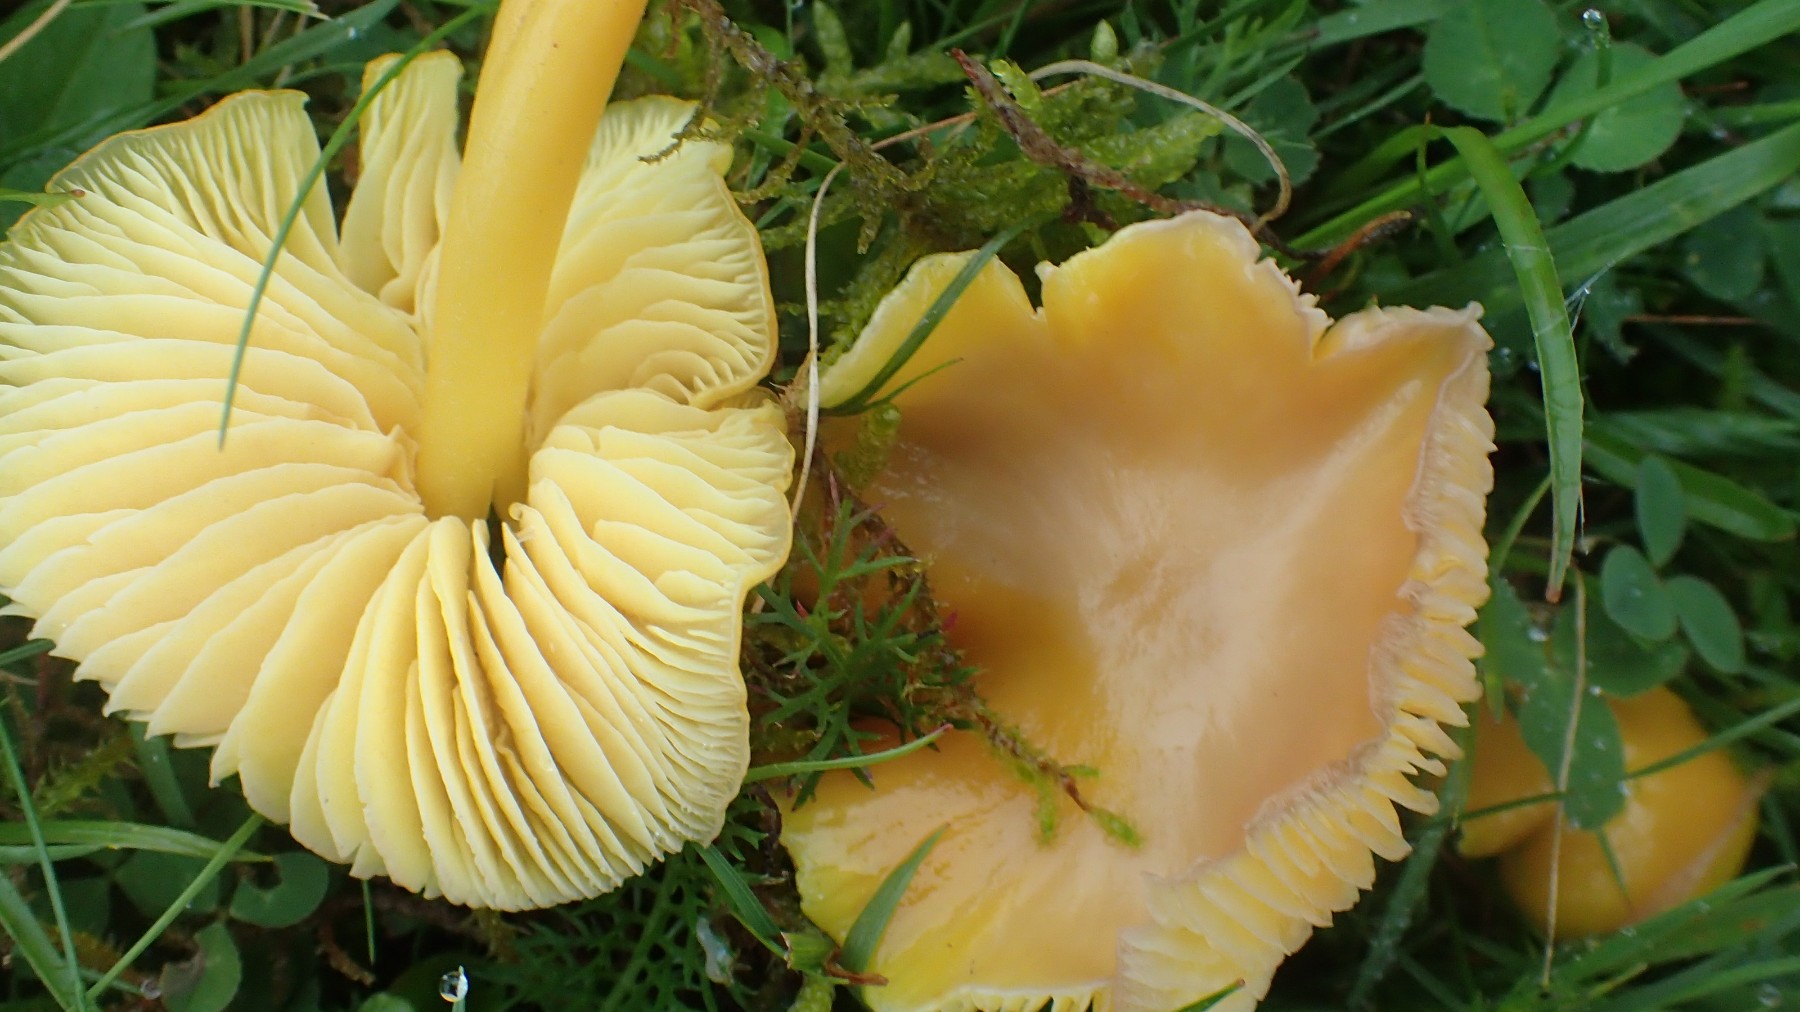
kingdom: Fungi
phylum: Basidiomycota
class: Agaricomycetes
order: Agaricales
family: Hygrophoraceae
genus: Hygrocybe
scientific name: Hygrocybe chlorophana
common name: gul vokshat
